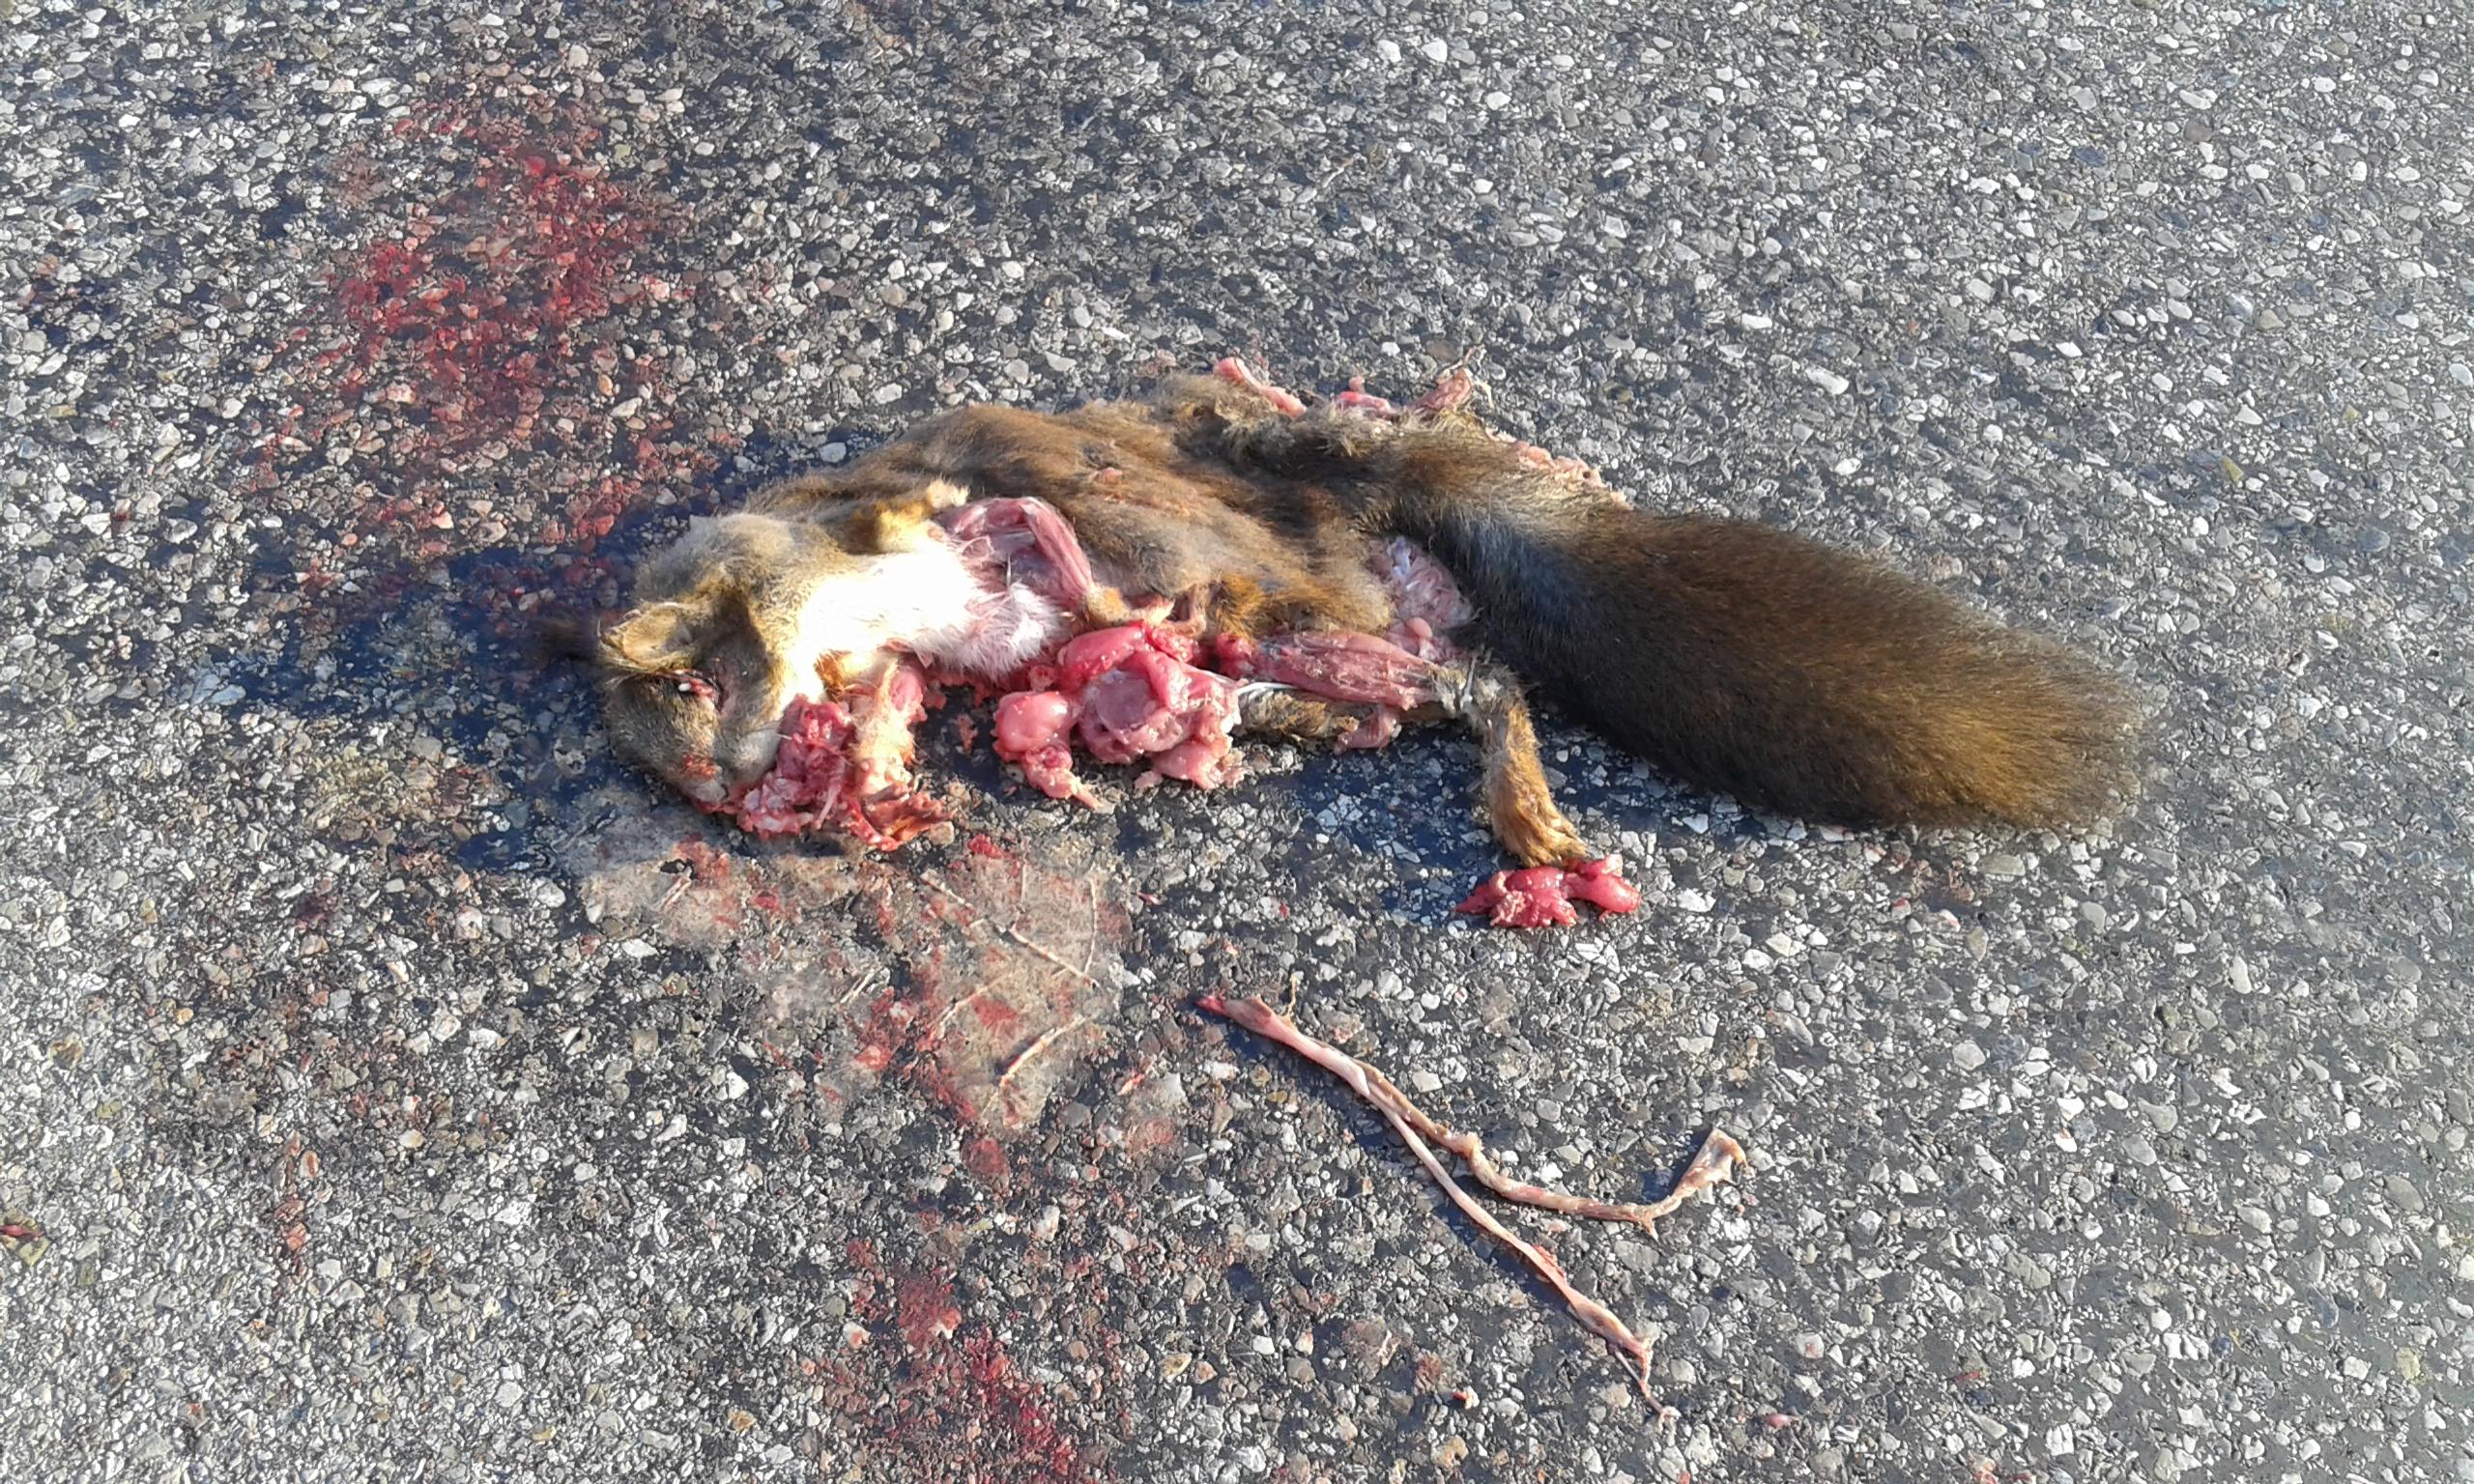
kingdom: Animalia
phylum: Chordata
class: Mammalia
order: Rodentia
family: Sciuridae
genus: Sciurus
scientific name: Sciurus vulgaris
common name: Eurasian red squirrel
